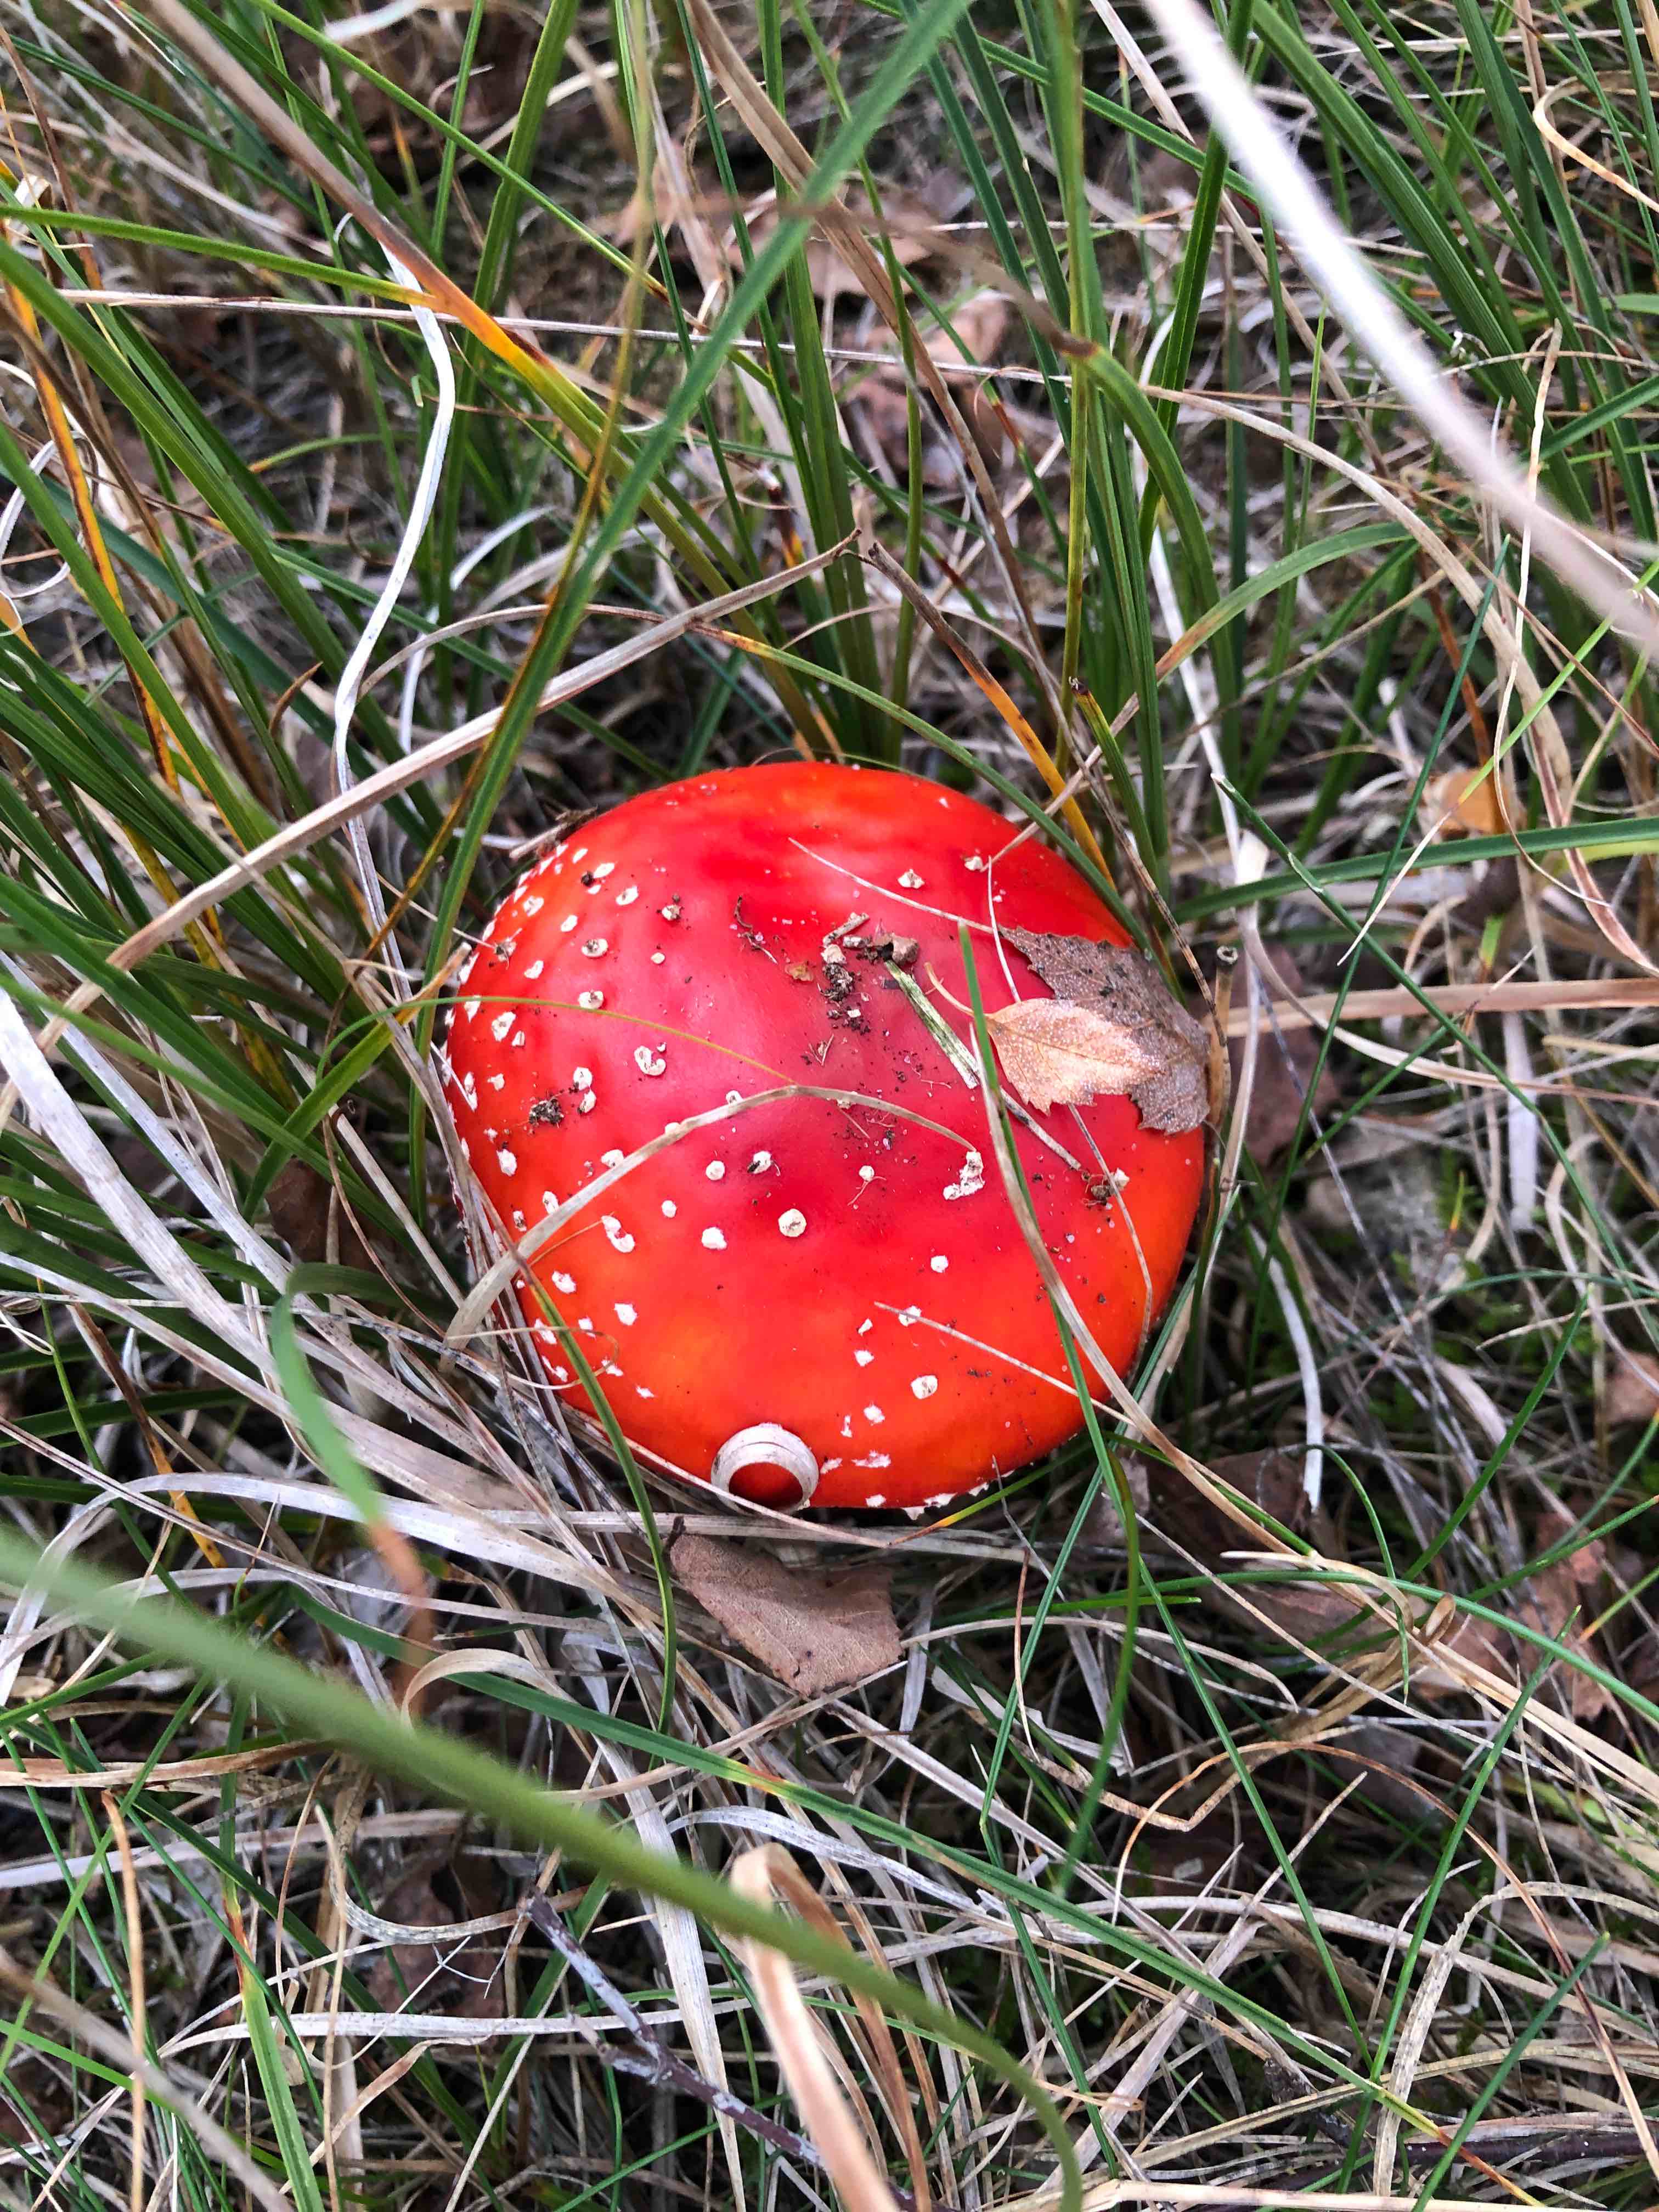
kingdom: Fungi
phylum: Basidiomycota
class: Agaricomycetes
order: Agaricales
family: Amanitaceae
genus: Amanita
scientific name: Amanita muscaria
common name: rød fluesvamp
